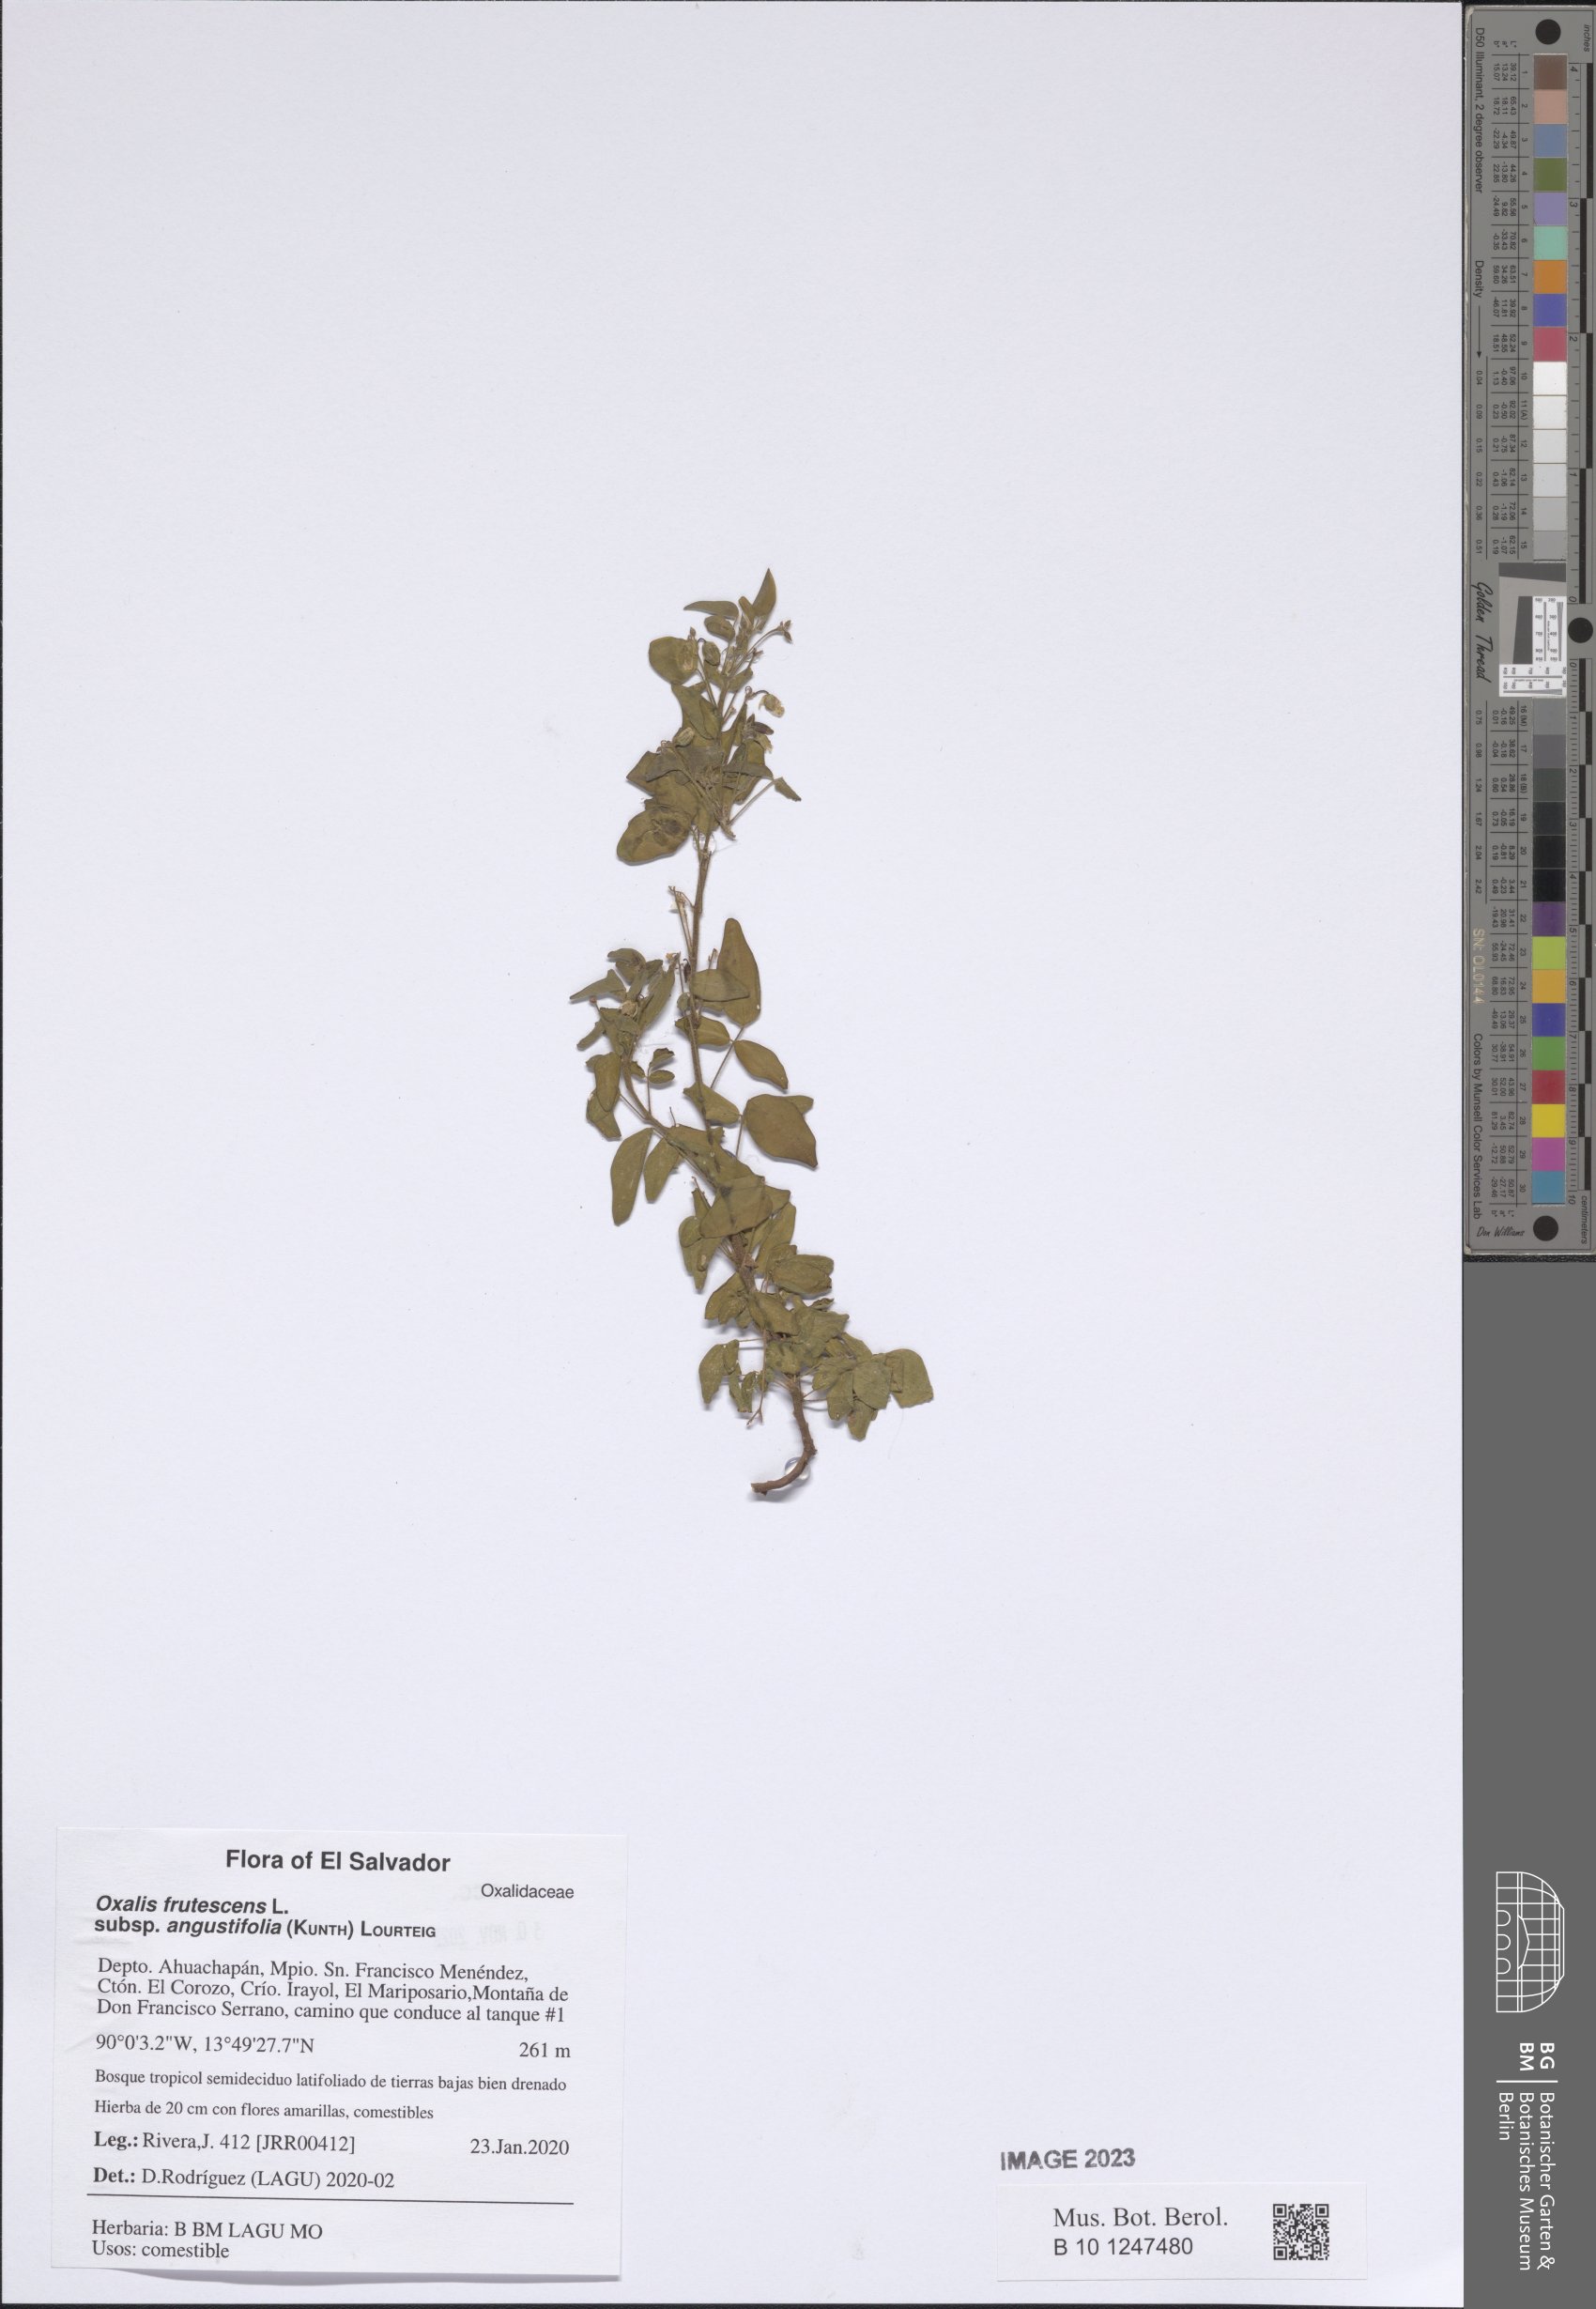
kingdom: Plantae
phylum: Tracheophyta
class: Magnoliopsida
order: Oxalidales
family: Oxalidaceae
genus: Oxalis
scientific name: Oxalis frutescens
